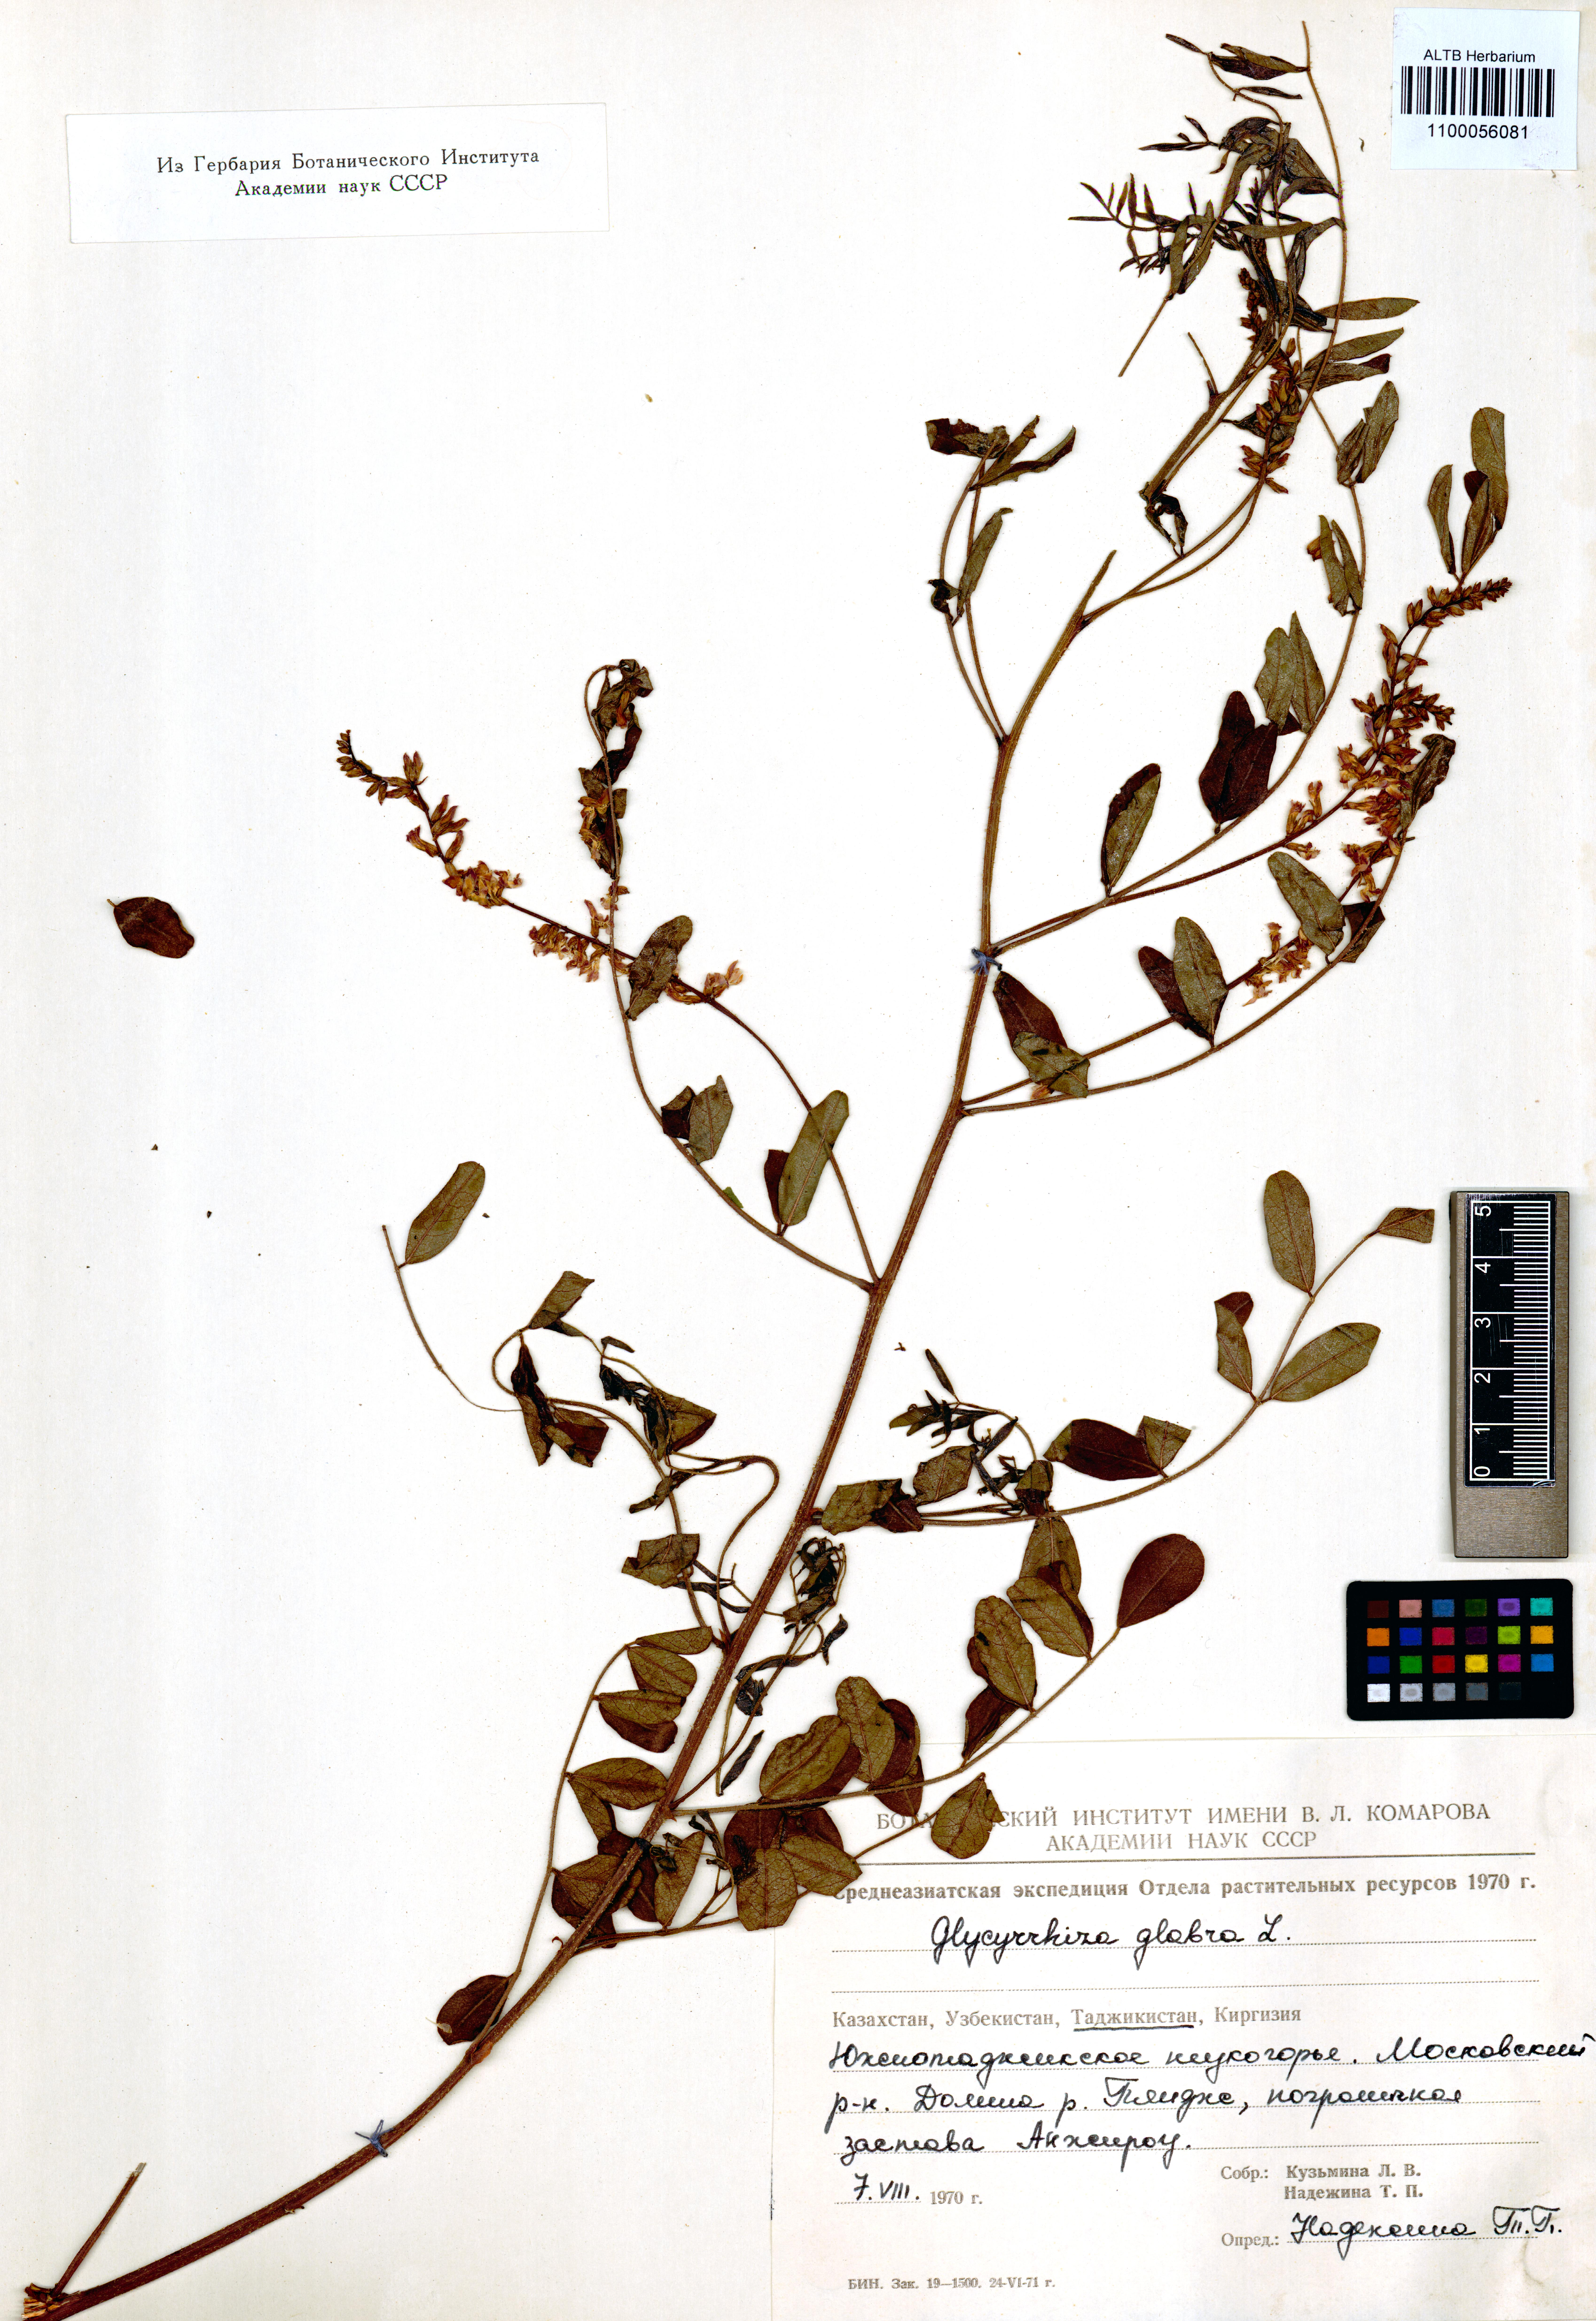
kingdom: Plantae
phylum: Tracheophyta
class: Magnoliopsida
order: Fabales
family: Fabaceae
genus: Glycyrrhiza
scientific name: Glycyrrhiza glabra
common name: Liquorice
